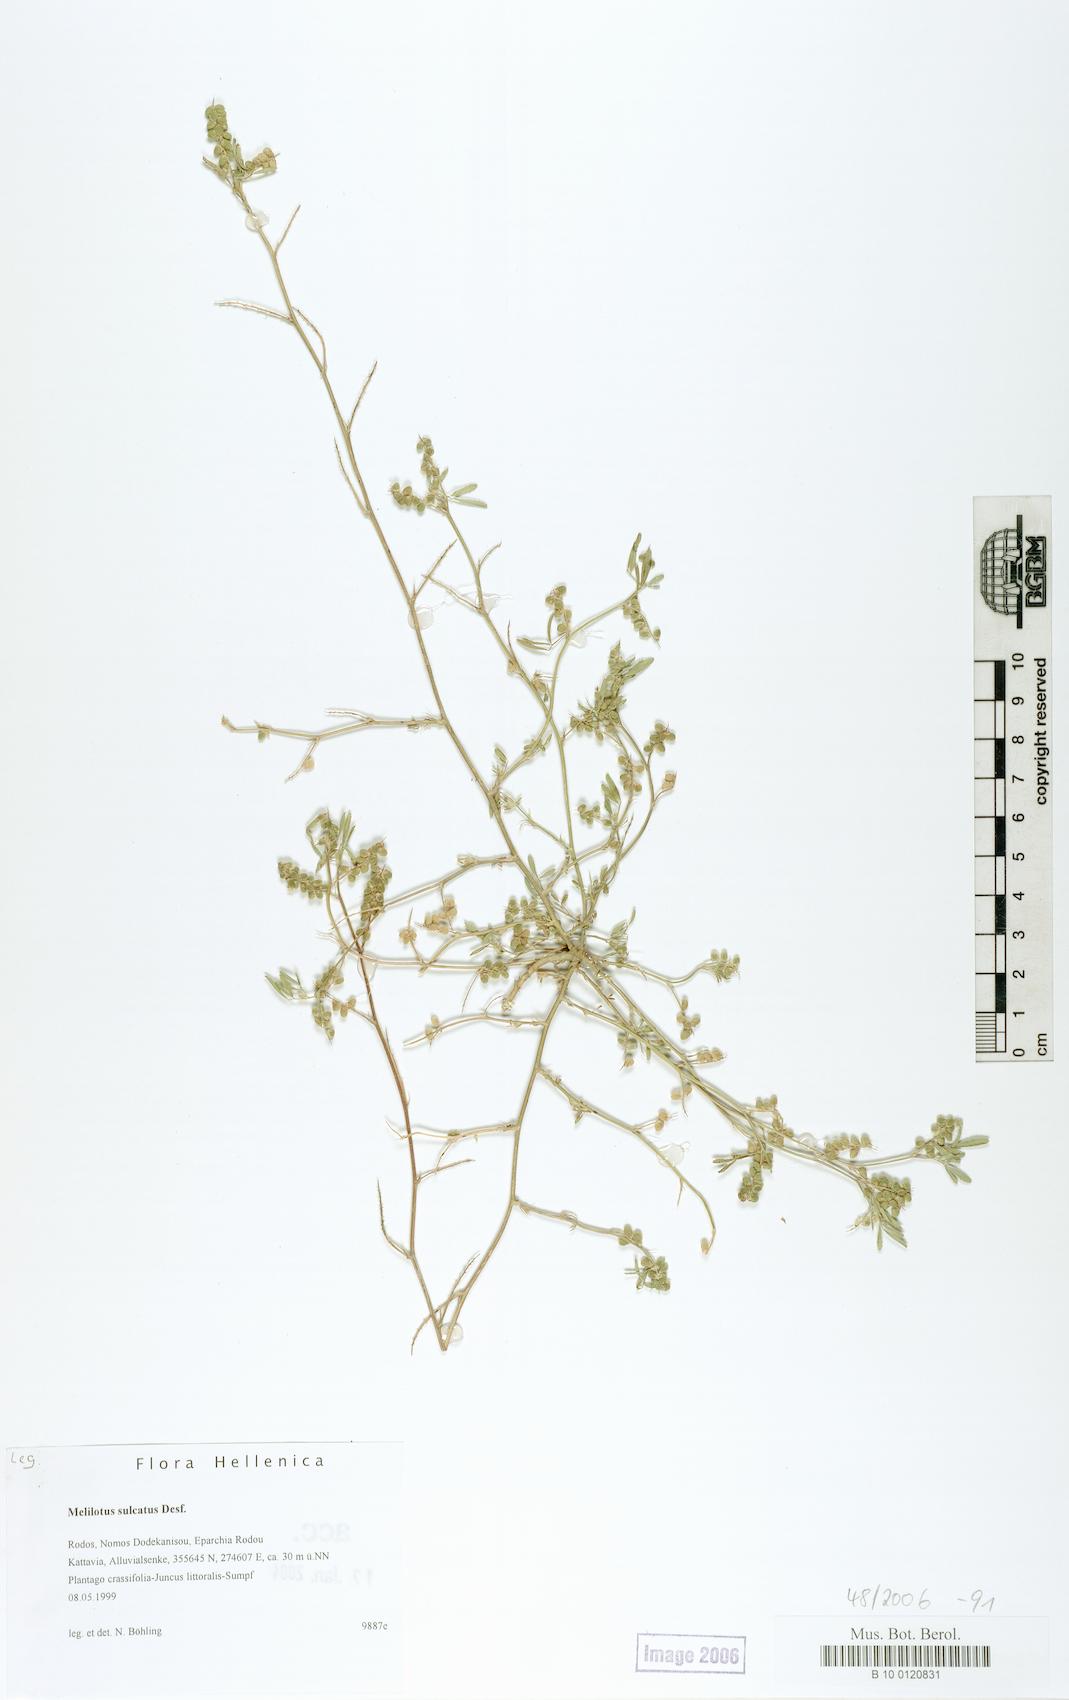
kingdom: Plantae
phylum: Tracheophyta
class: Magnoliopsida
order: Fabales
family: Fabaceae
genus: Melilotus
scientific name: Melilotus sulcatus
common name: Furrowed melilot
